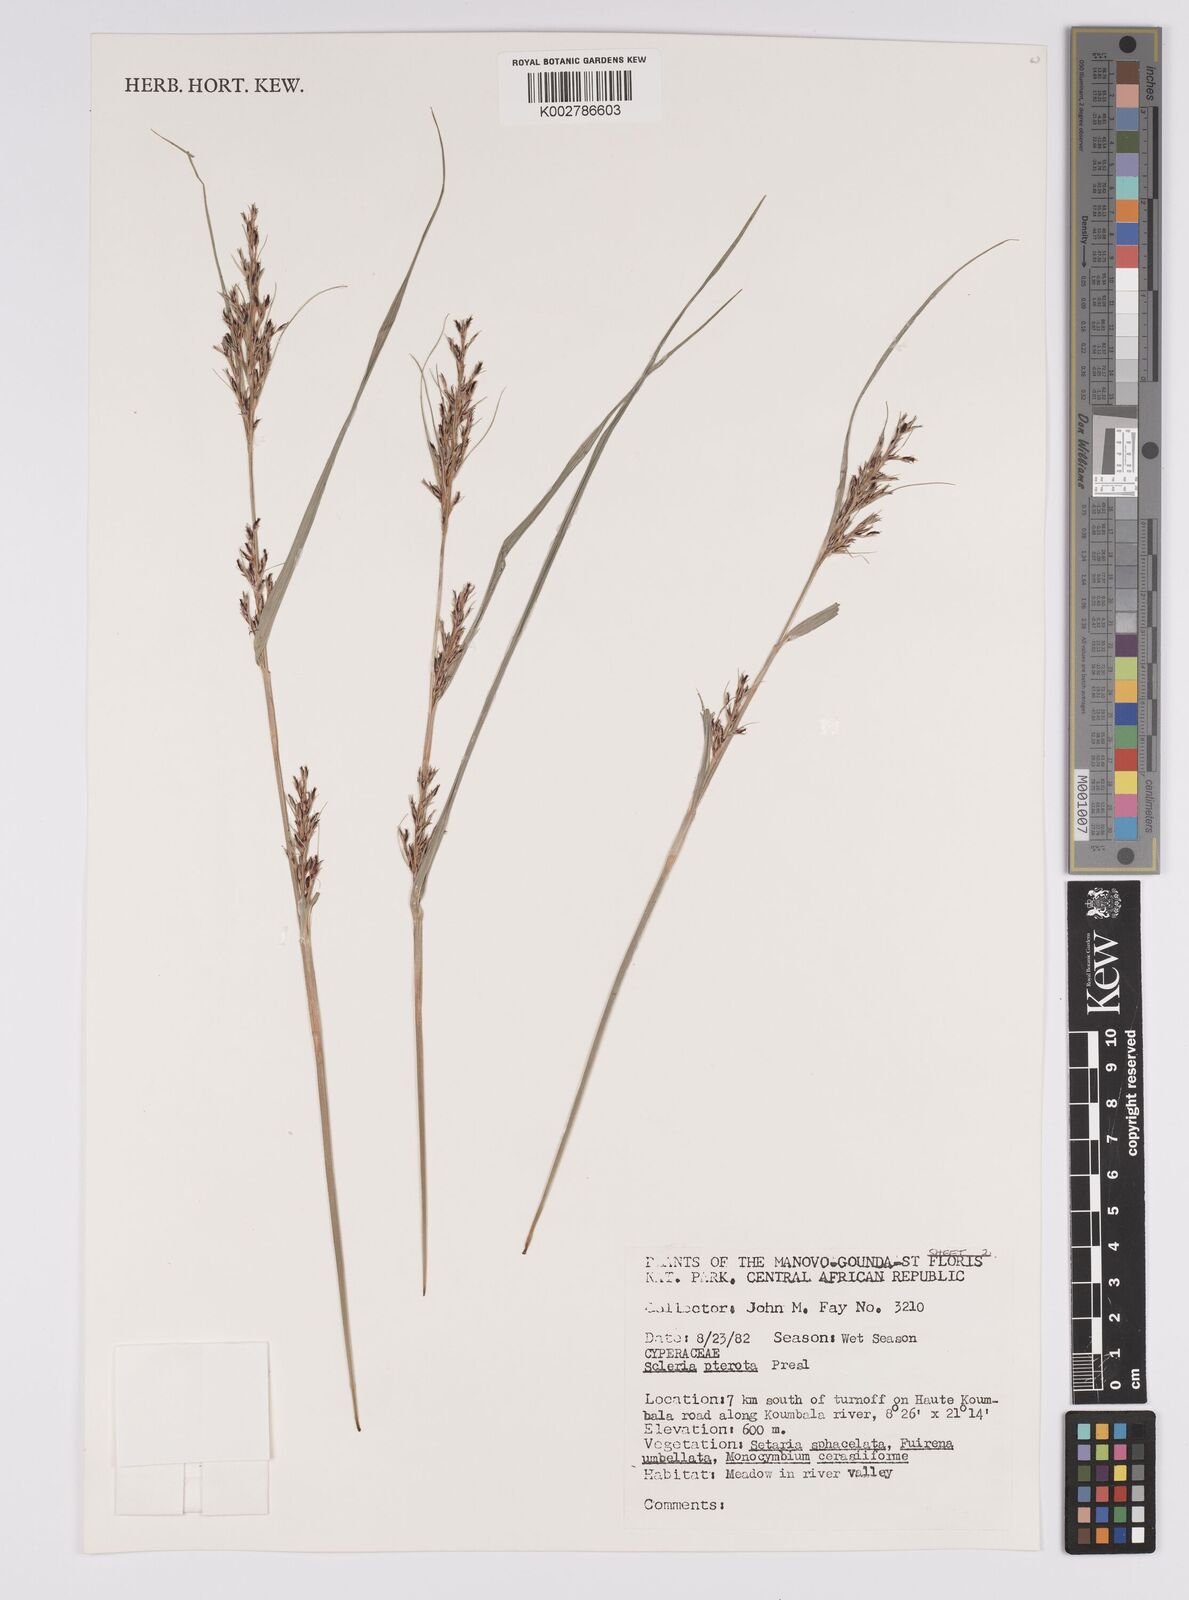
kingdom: Plantae
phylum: Tracheophyta
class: Liliopsida
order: Poales
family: Cyperaceae
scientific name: Cyperaceae
